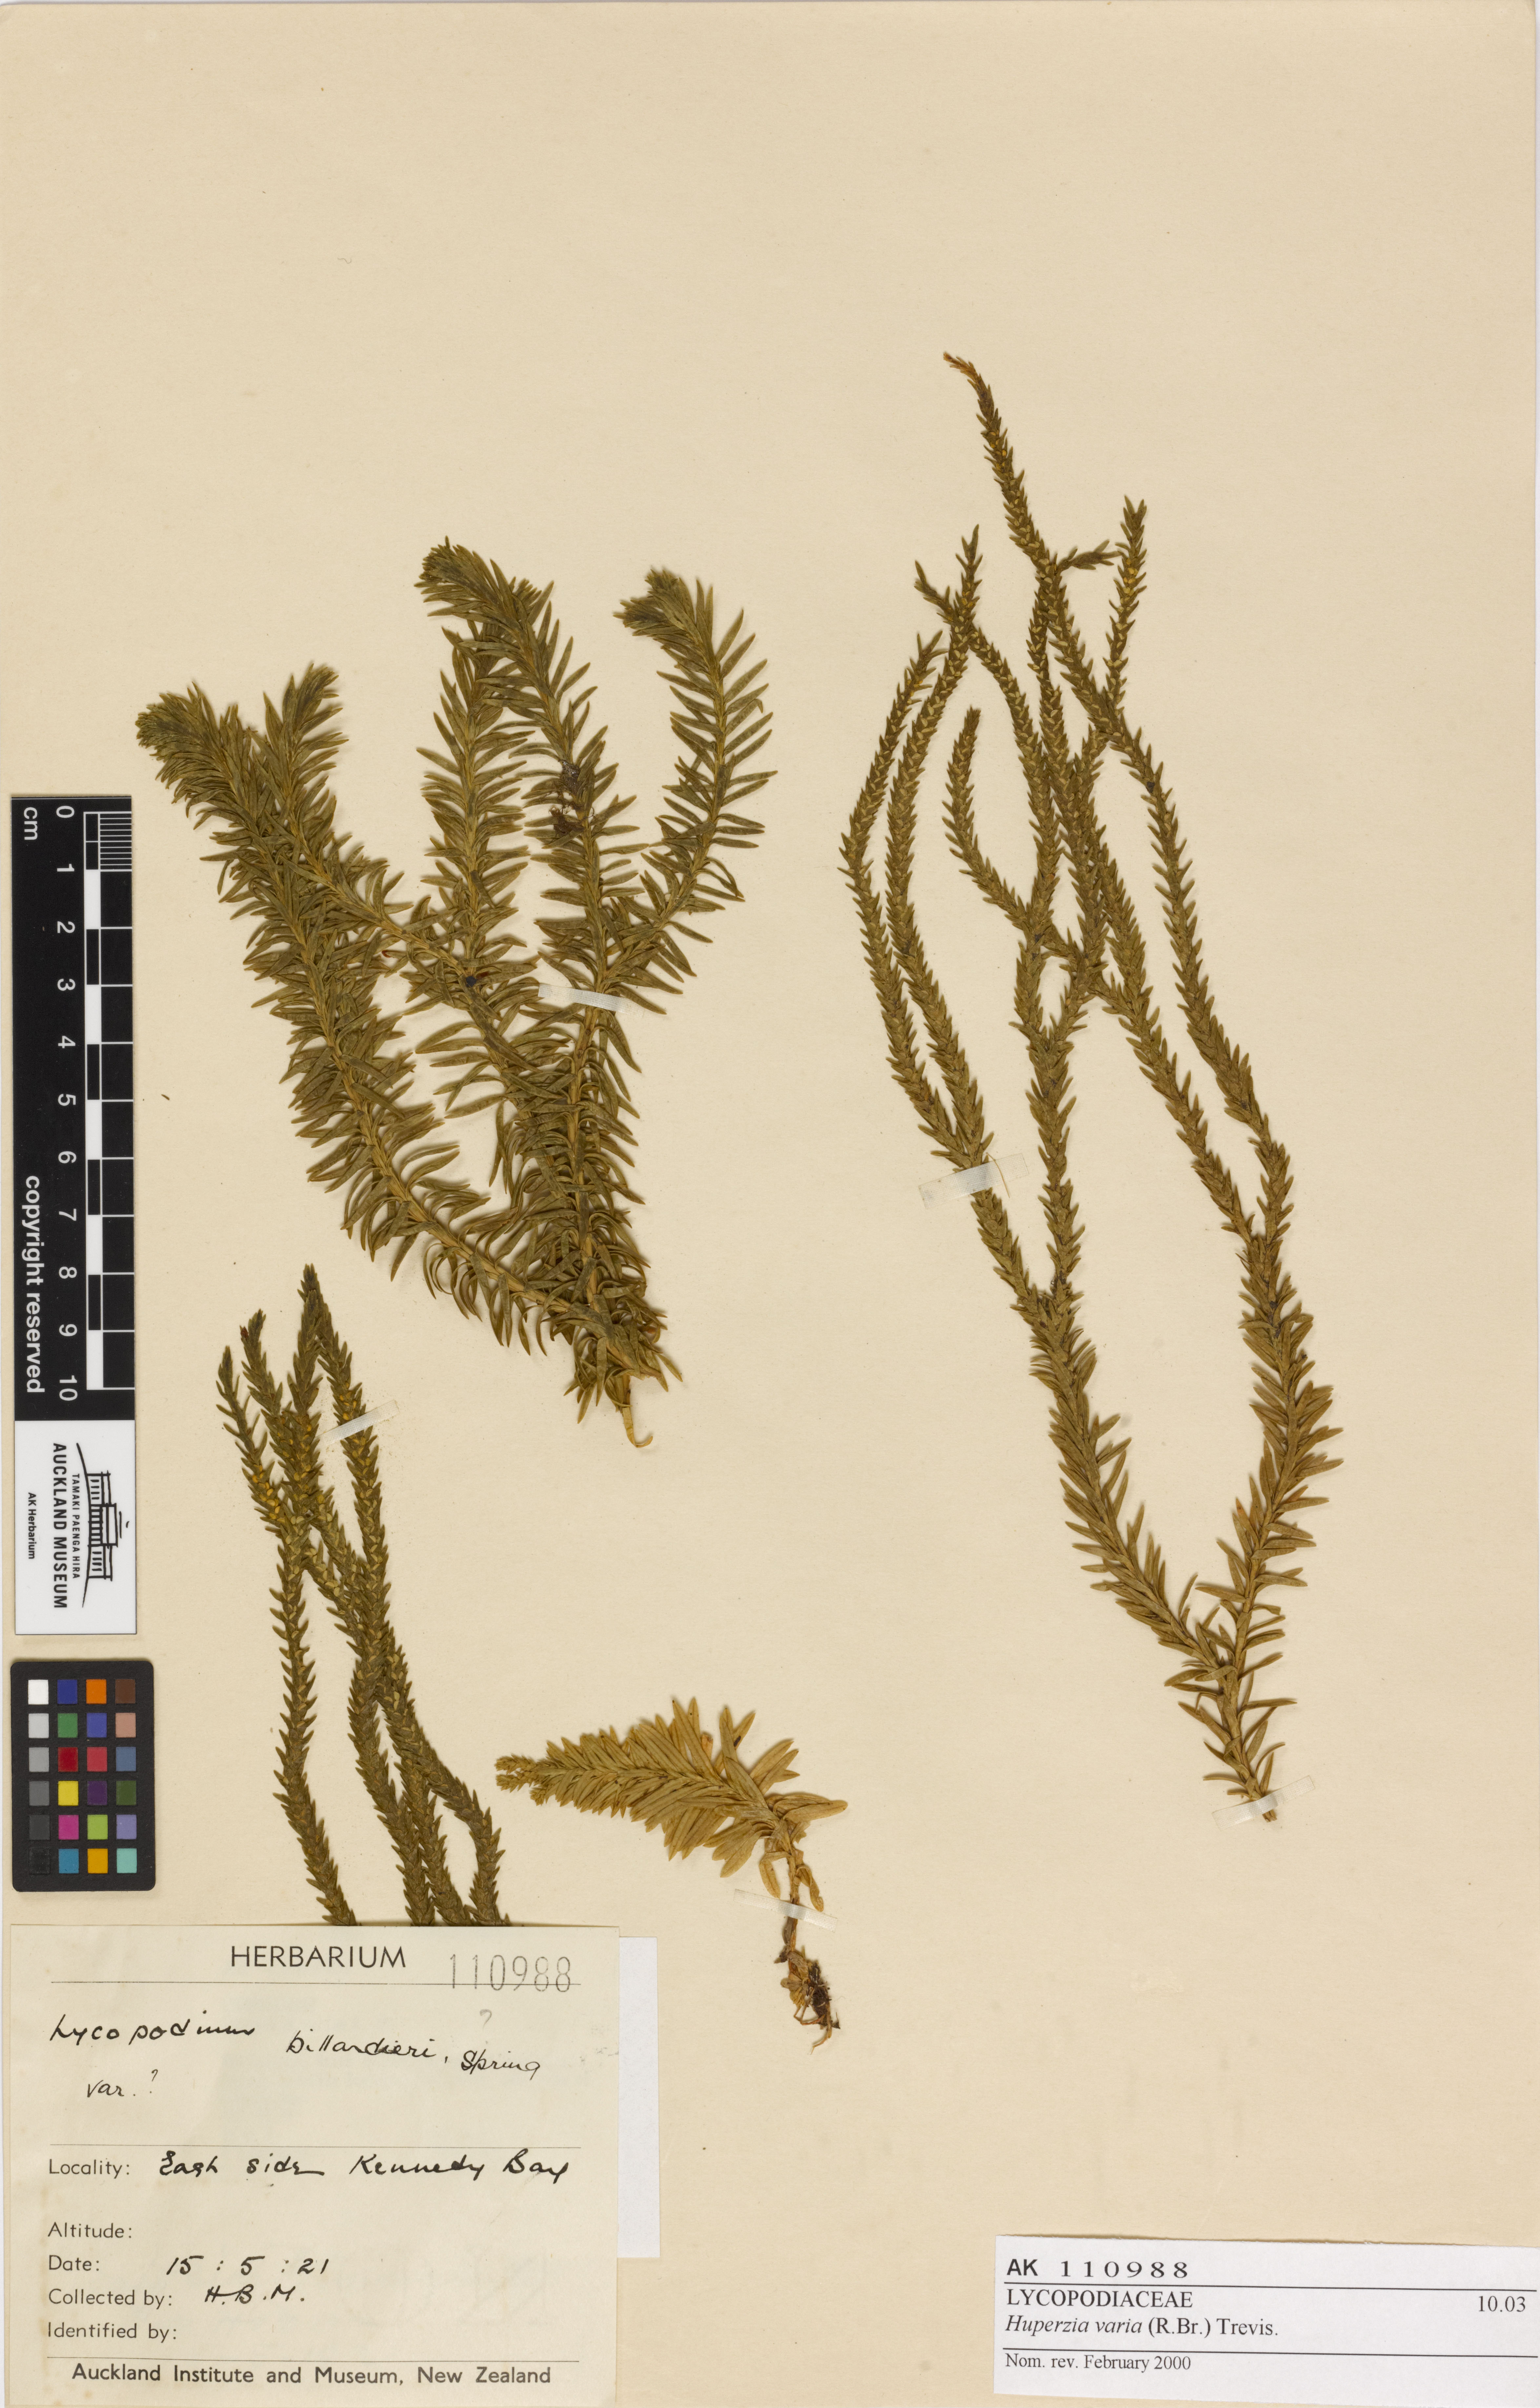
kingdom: Plantae
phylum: Tracheophyta
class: Lycopodiopsida
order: Lycopodiales
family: Lycopodiaceae
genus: Phlegmariurus
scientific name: Phlegmariurus varius
